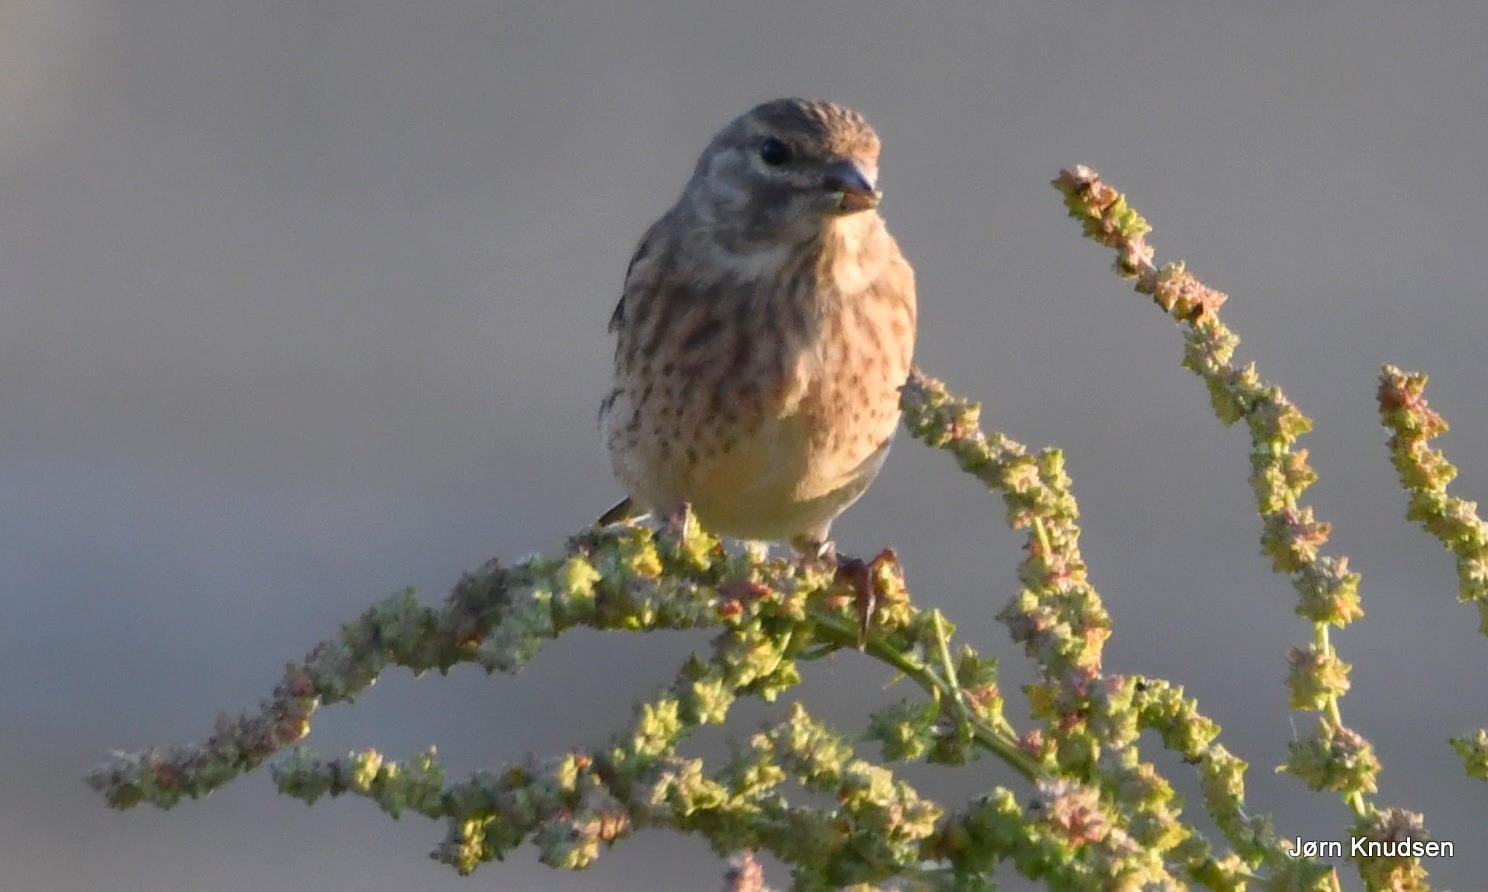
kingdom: Animalia
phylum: Chordata
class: Aves
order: Passeriformes
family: Fringillidae
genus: Linaria
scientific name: Linaria cannabina
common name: Tornirisk
